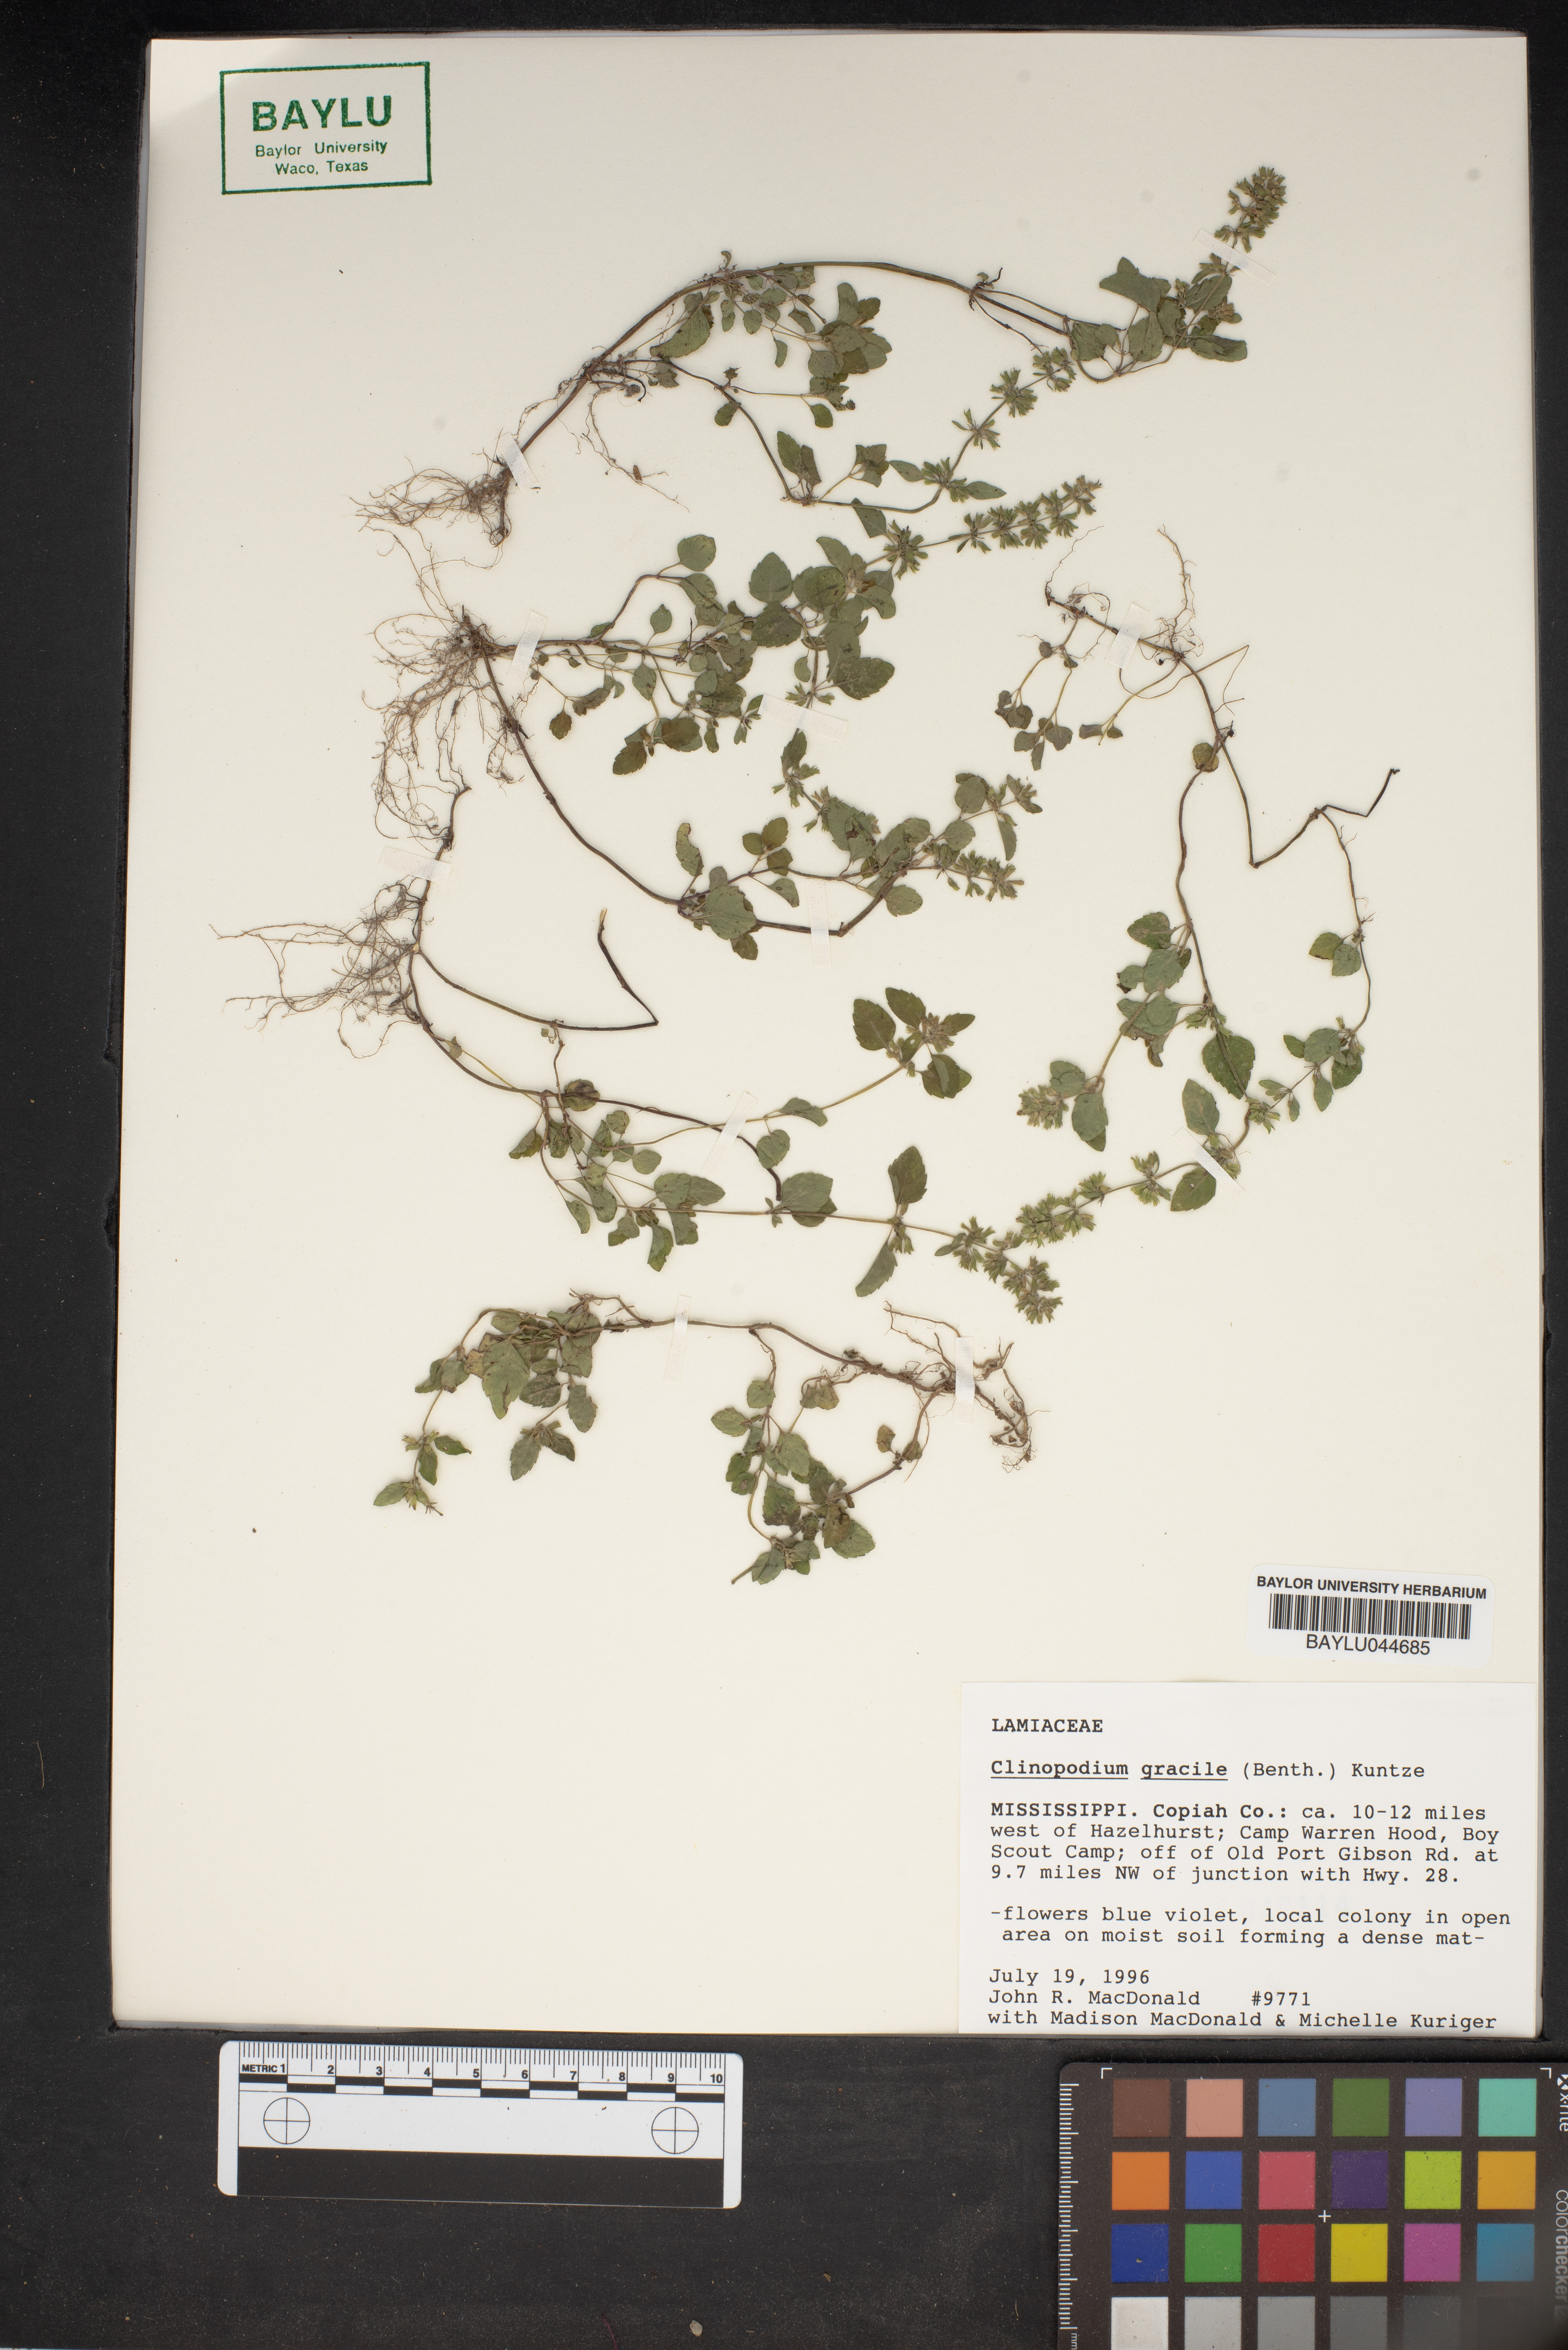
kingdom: Plantae
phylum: Tracheophyta
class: Magnoliopsida
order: Lamiales
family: Lamiaceae
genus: Clinopodium
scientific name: Clinopodium gracile
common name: Slender wild basil
